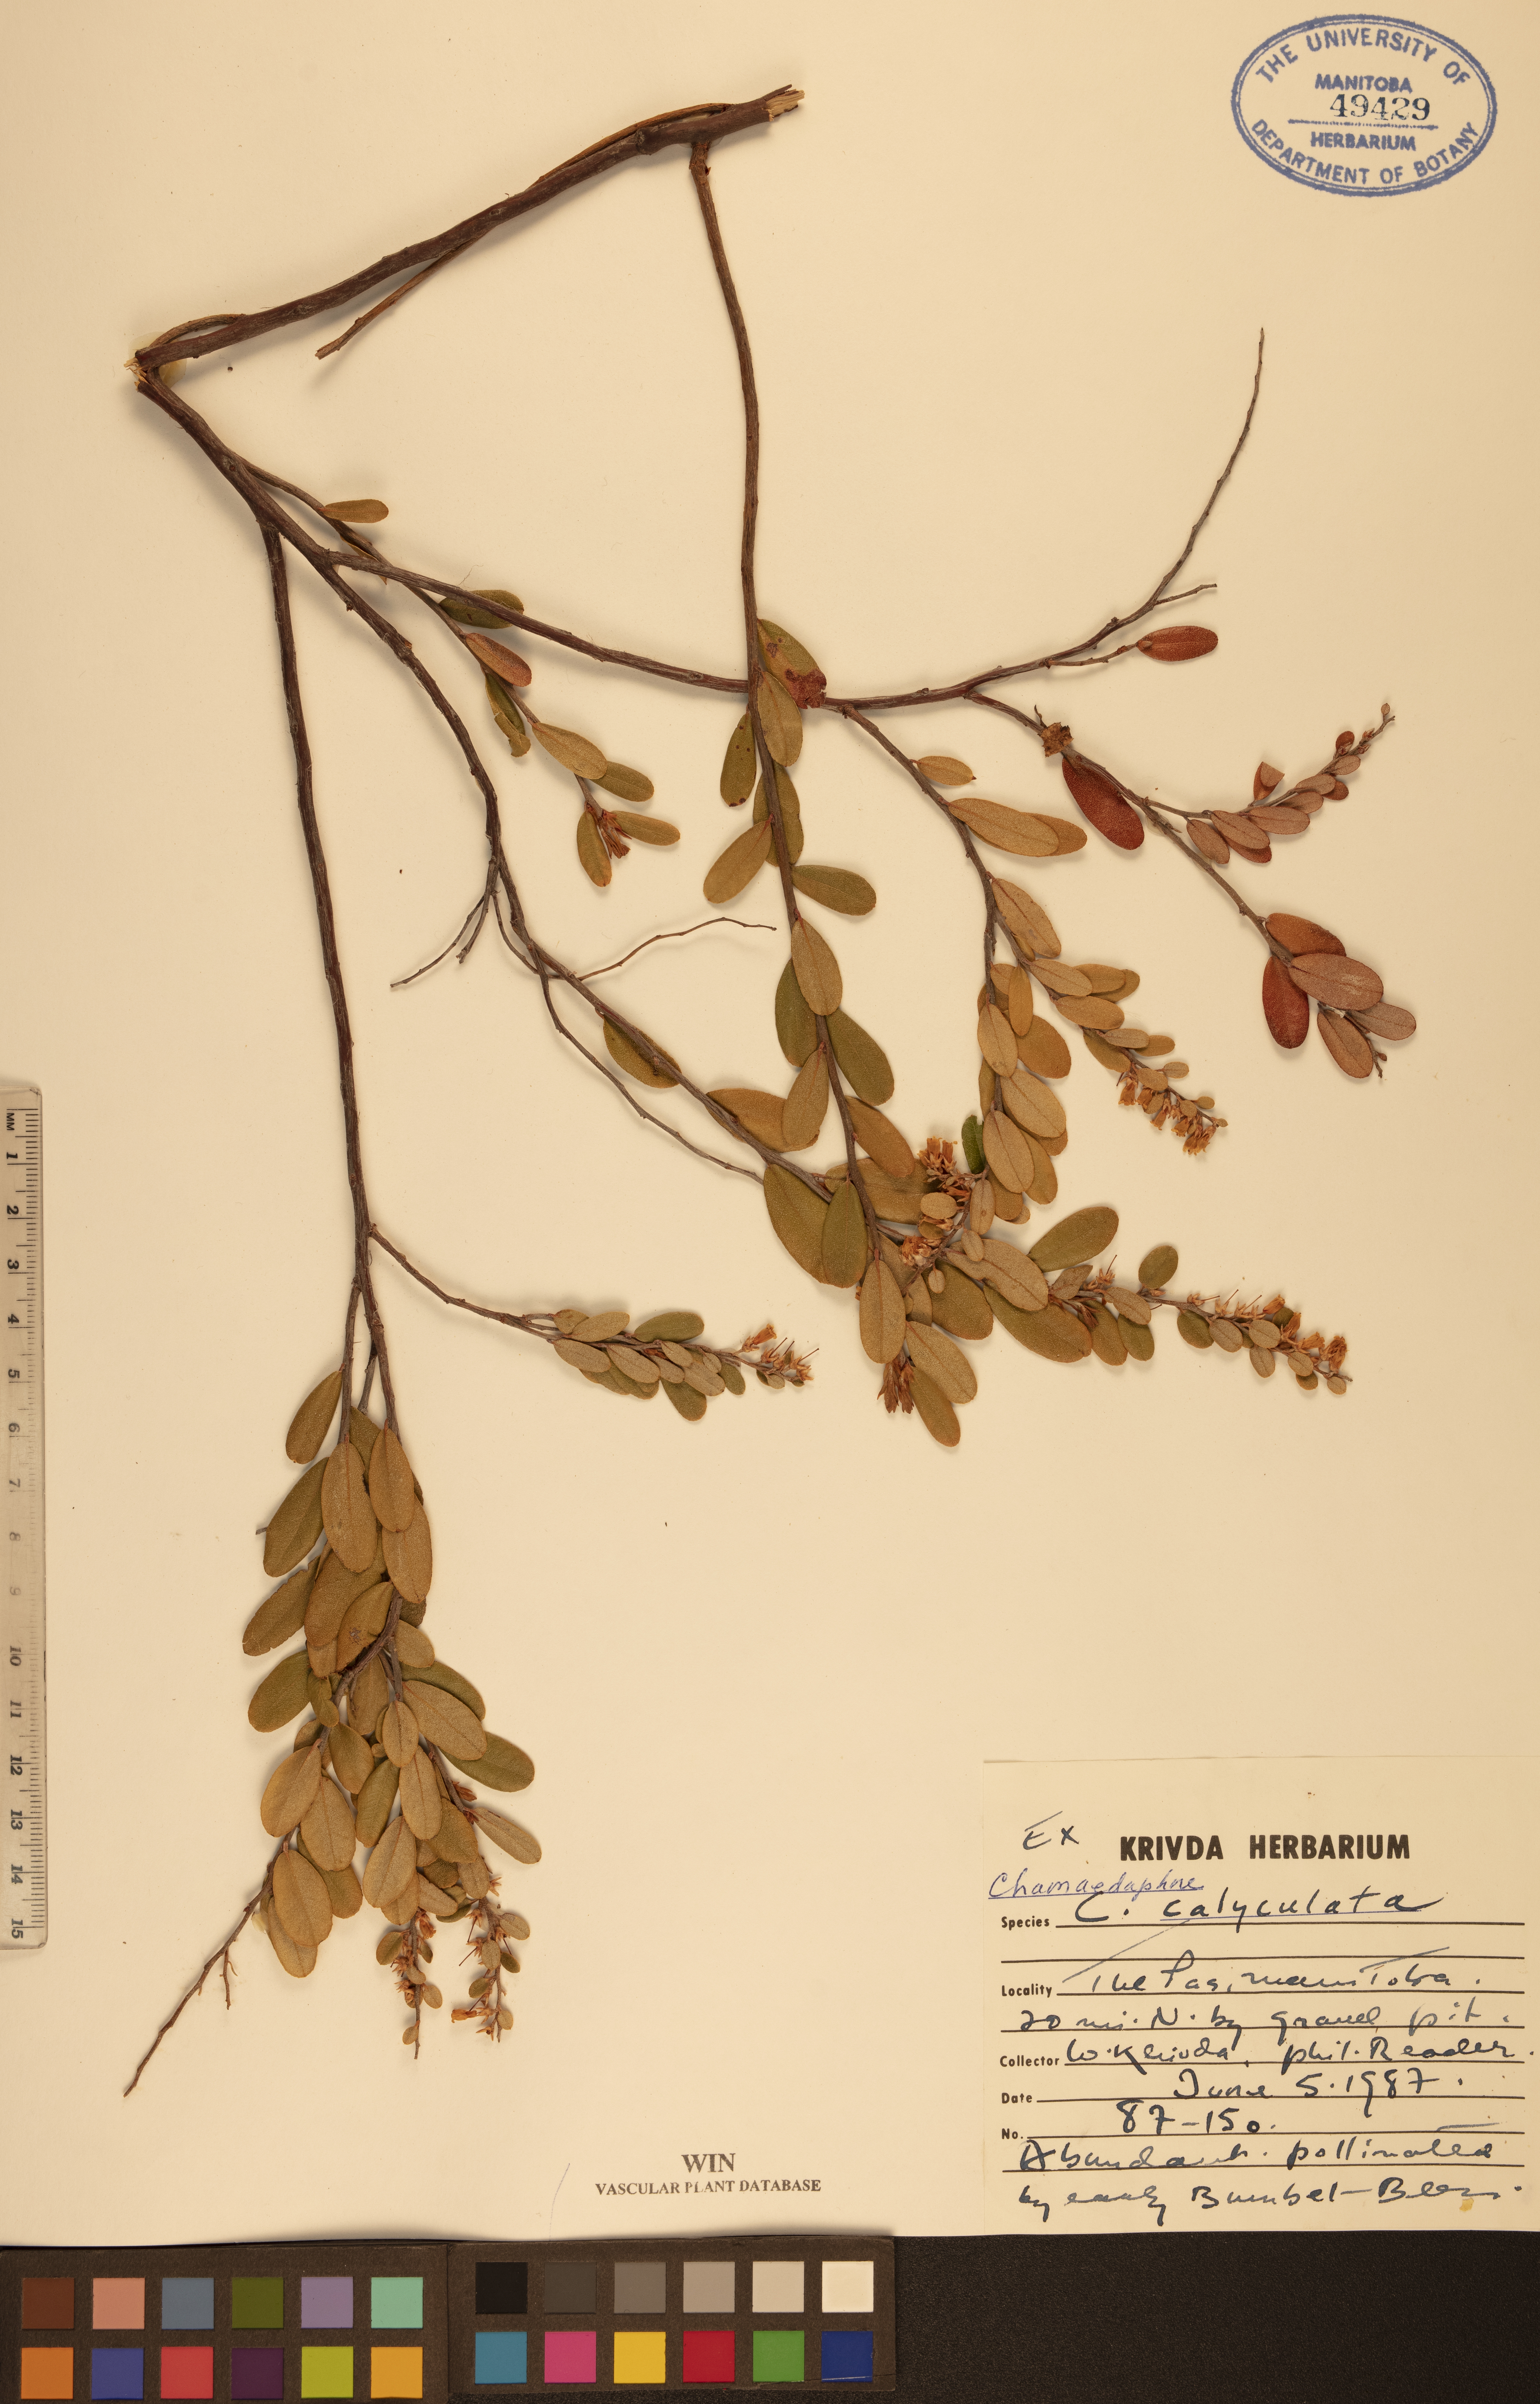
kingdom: Plantae
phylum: Tracheophyta
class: Magnoliopsida
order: Ericales
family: Ericaceae
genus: Chamaedaphne
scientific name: Chamaedaphne calyculata
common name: Leatherleaf
